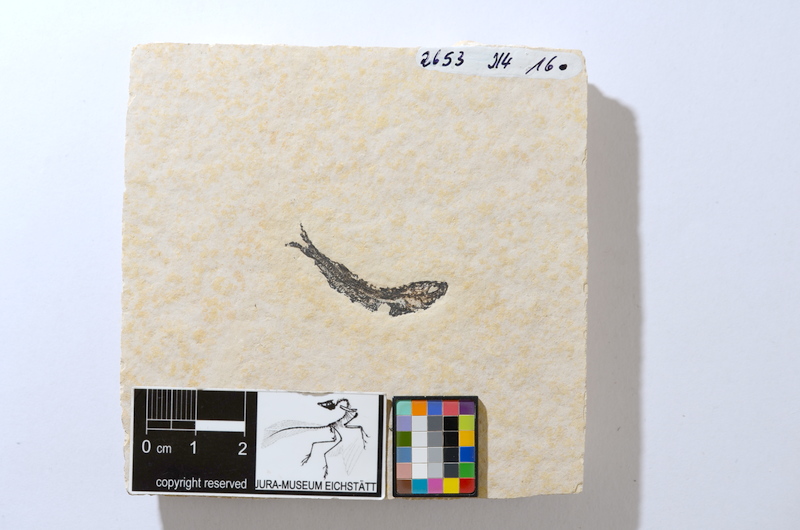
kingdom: Animalia
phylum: Chordata
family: Allothrissopidae
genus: Allothrissops
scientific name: Allothrissops
